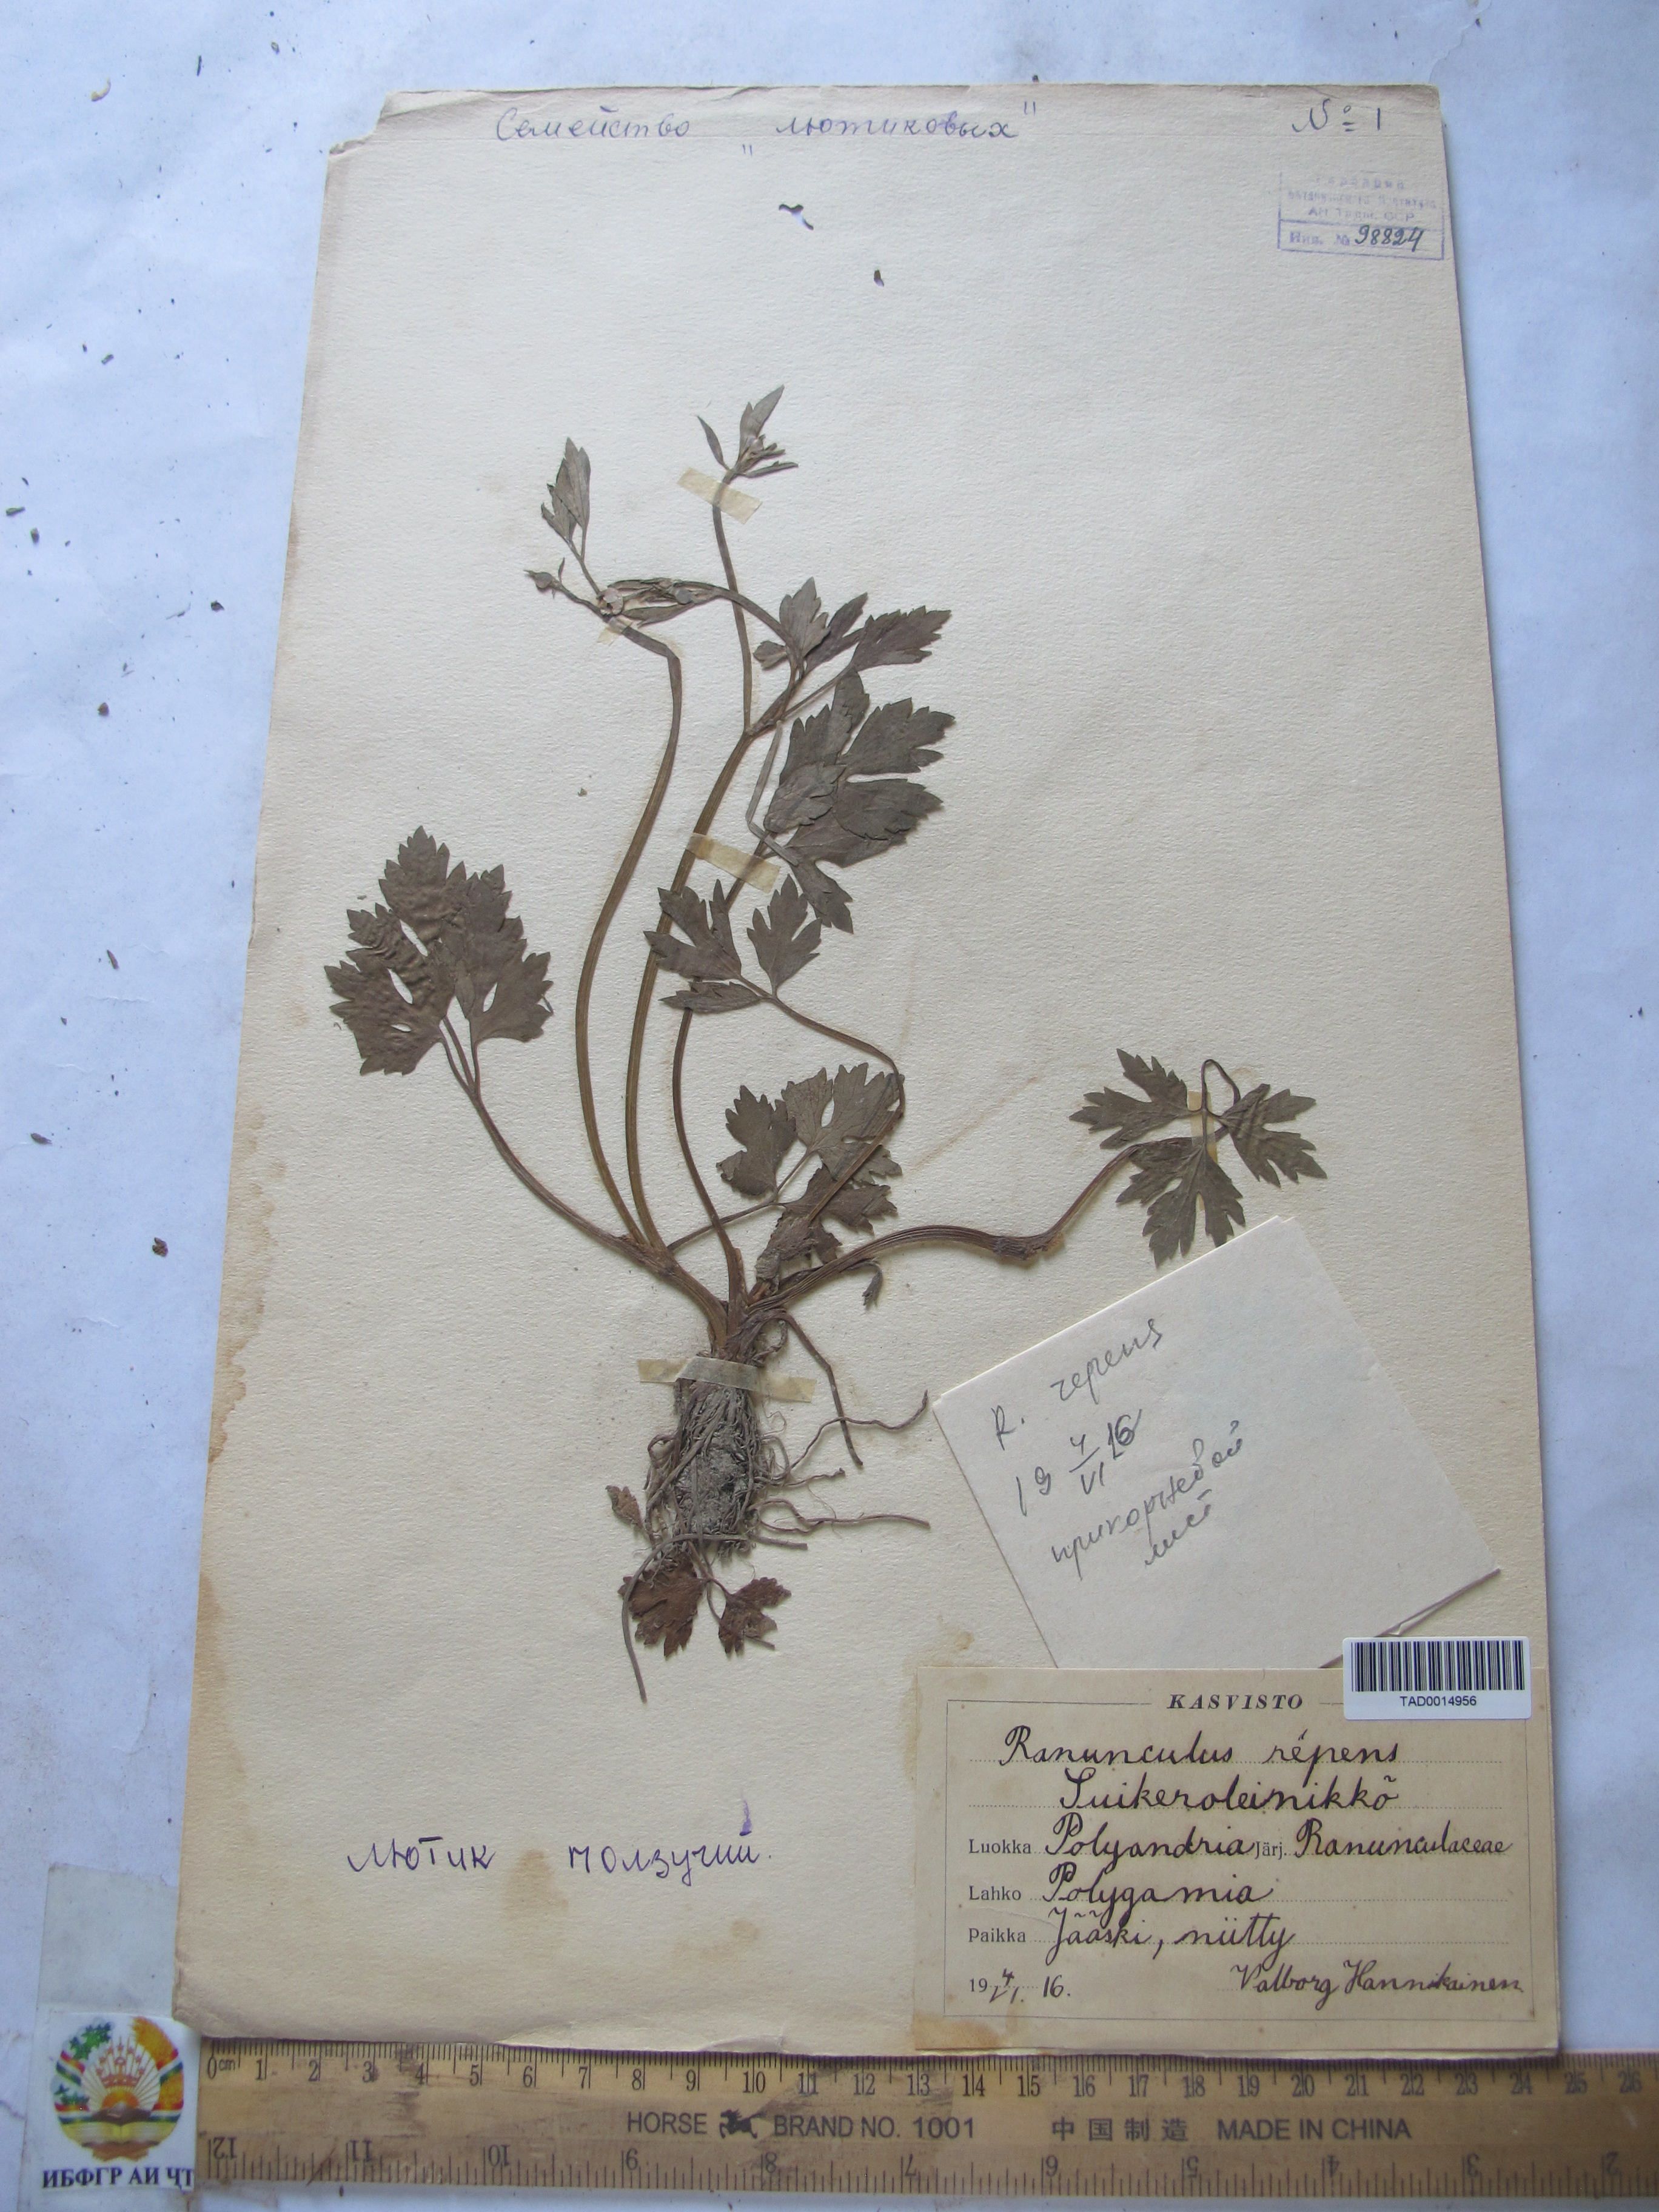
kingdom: Plantae
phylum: Tracheophyta
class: Magnoliopsida
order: Ranunculales
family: Ranunculaceae
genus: Ranunculus
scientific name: Ranunculus repens
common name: Creeping buttercup
